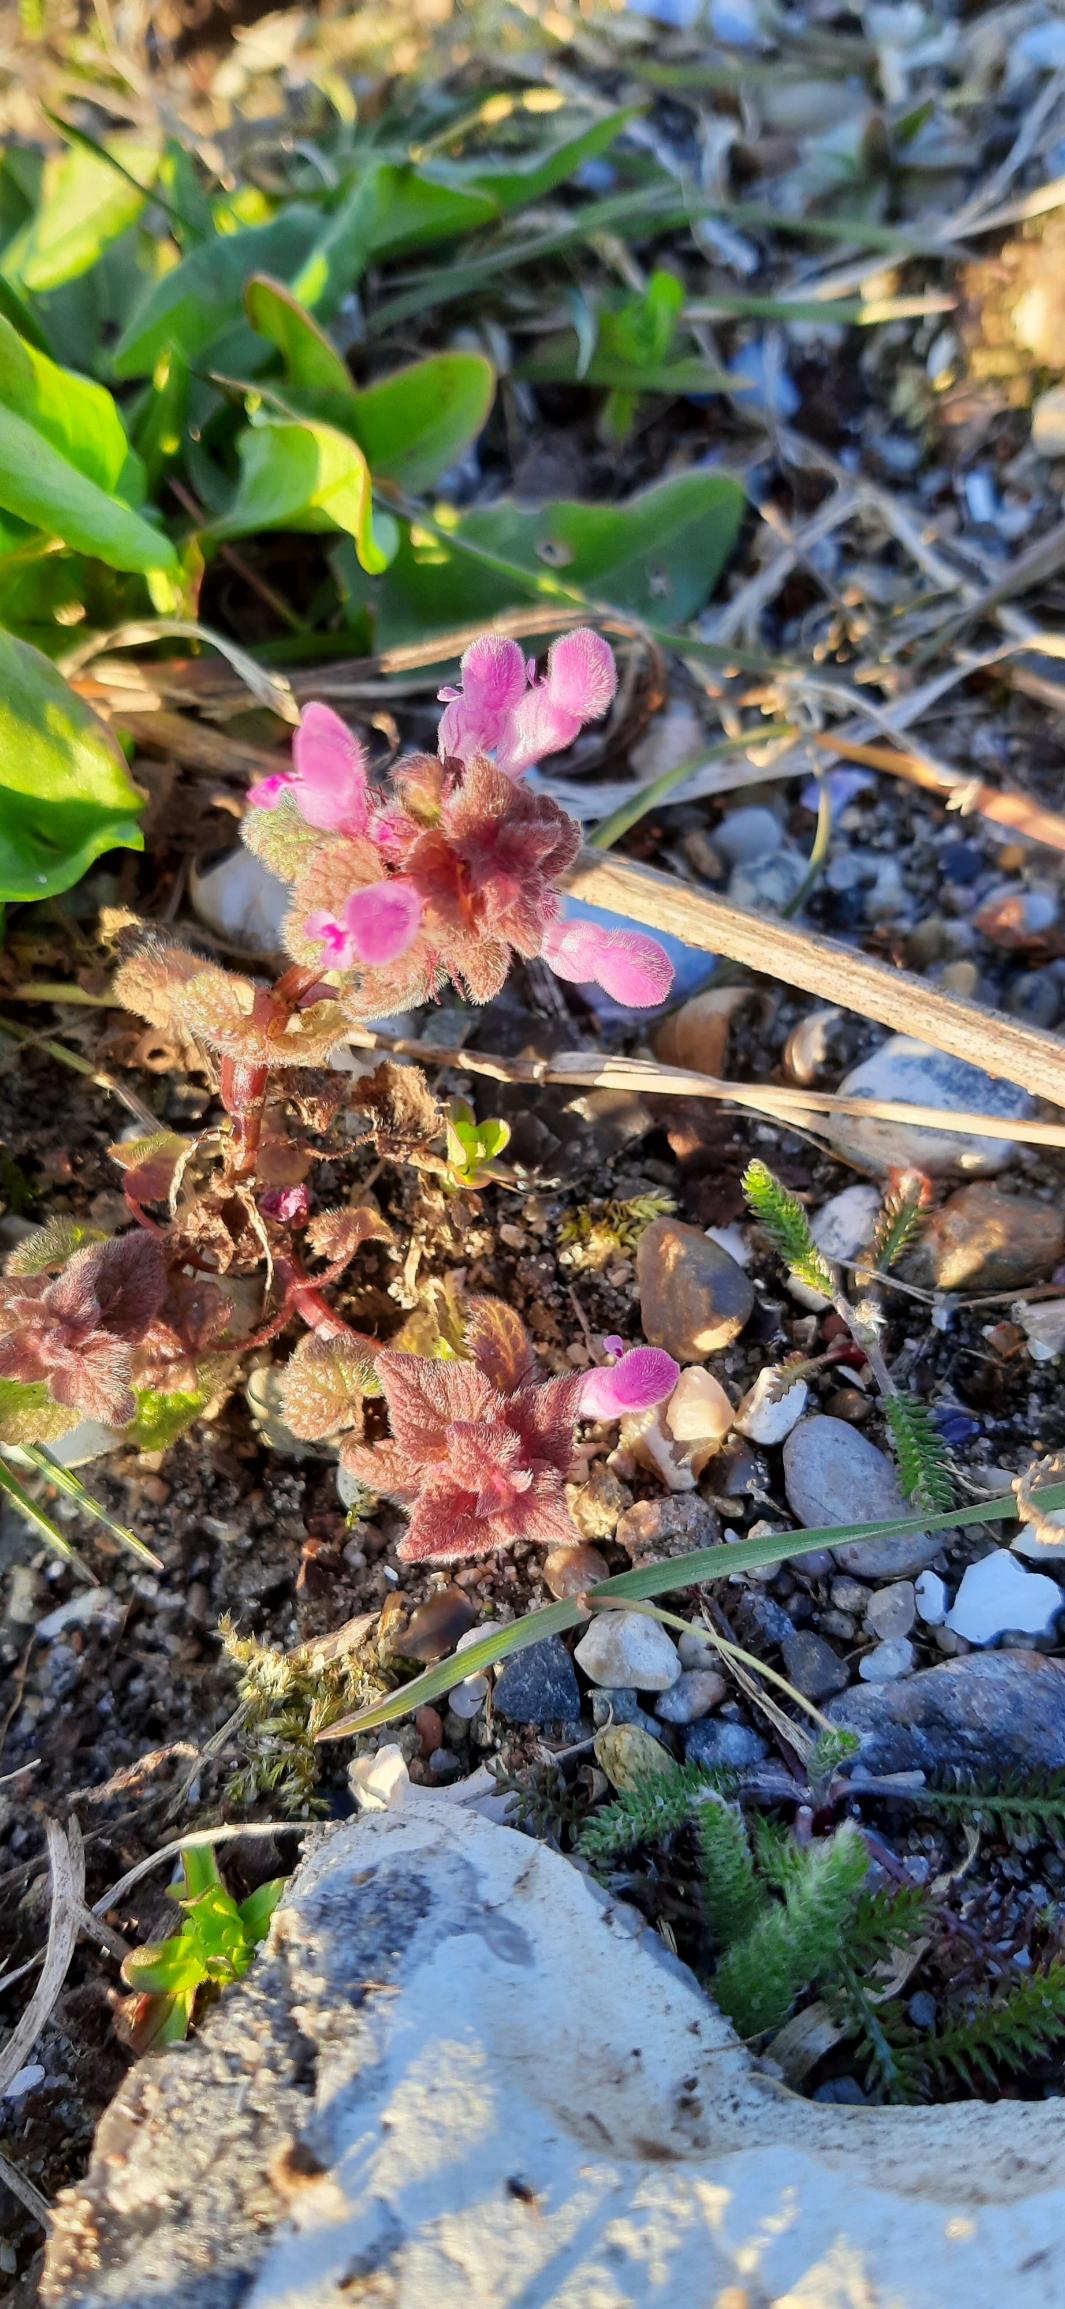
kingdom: Plantae
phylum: Tracheophyta
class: Magnoliopsida
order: Lamiales
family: Lamiaceae
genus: Lamium
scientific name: Lamium purpureum
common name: Rød tvetand
